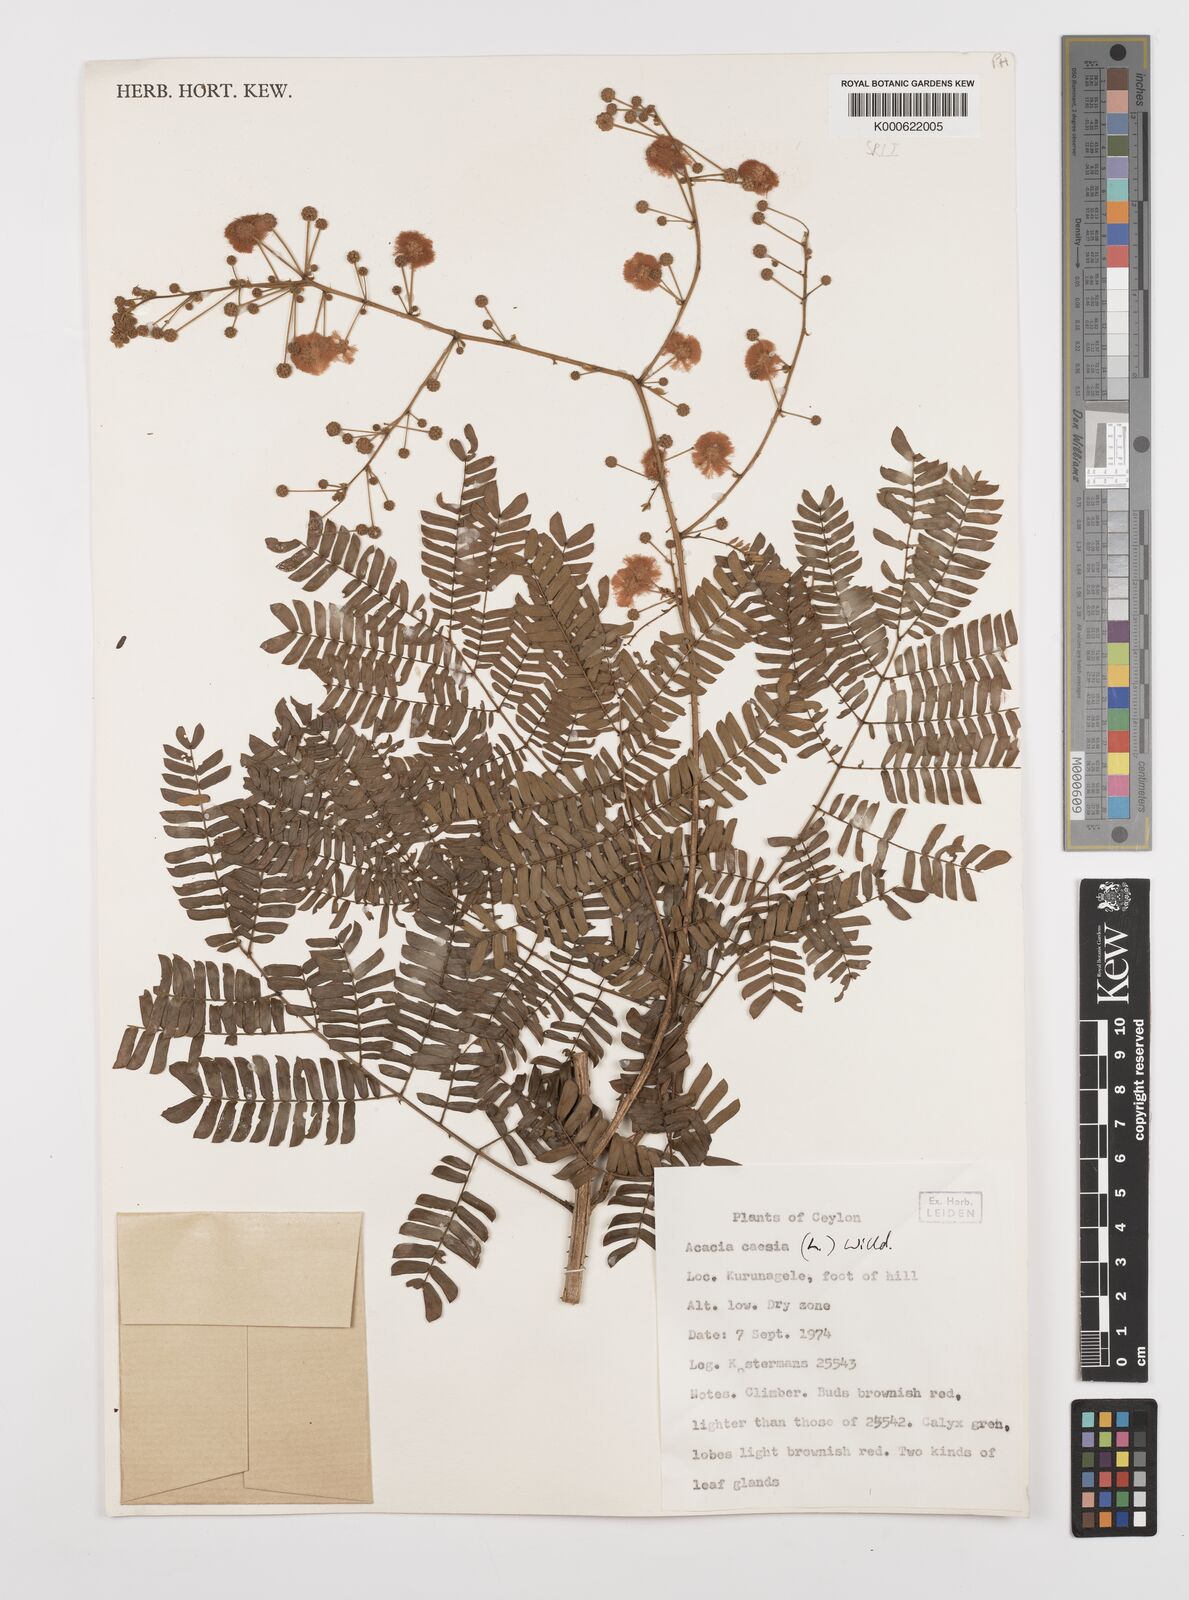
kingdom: Plantae
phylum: Tracheophyta
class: Magnoliopsida
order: Fabales
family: Fabaceae
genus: Senegalia
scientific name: Senegalia caesia
